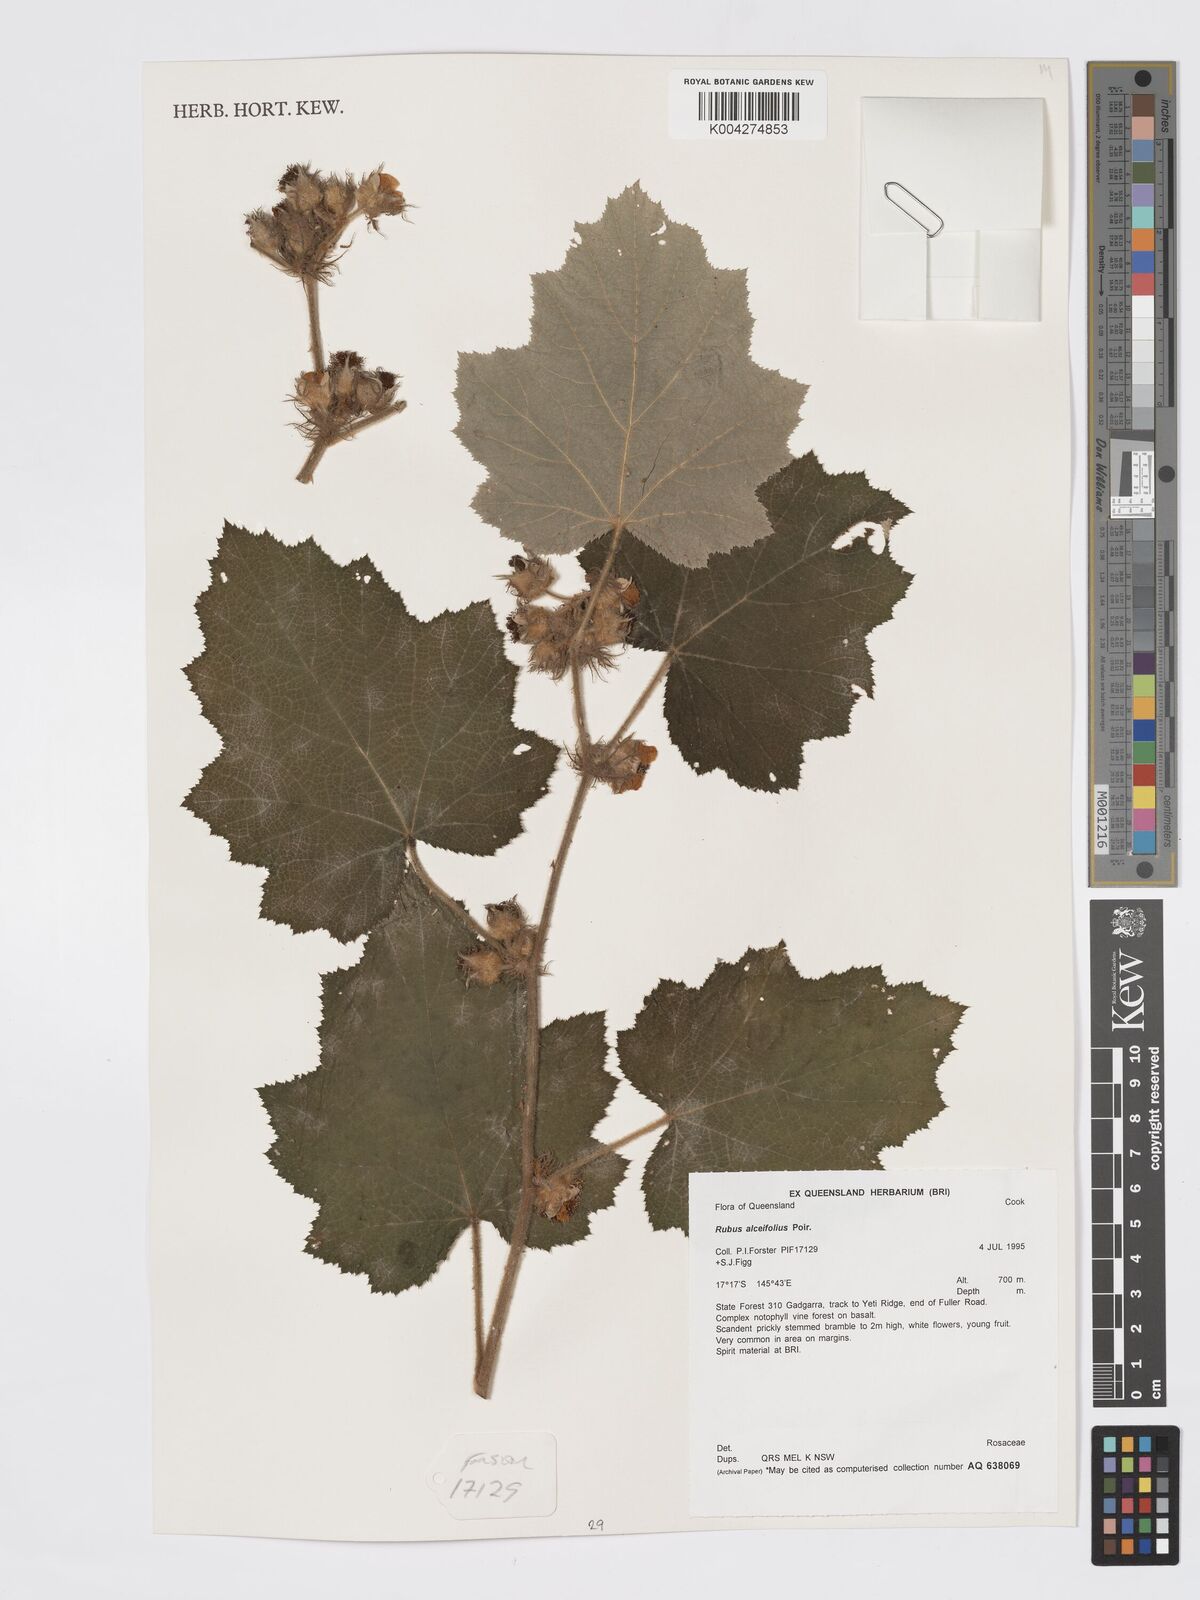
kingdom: Plantae
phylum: Tracheophyta
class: Magnoliopsida
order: Rosales
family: Rosaceae
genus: Rubus
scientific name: Rubus alceifolius
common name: Giant bramble
